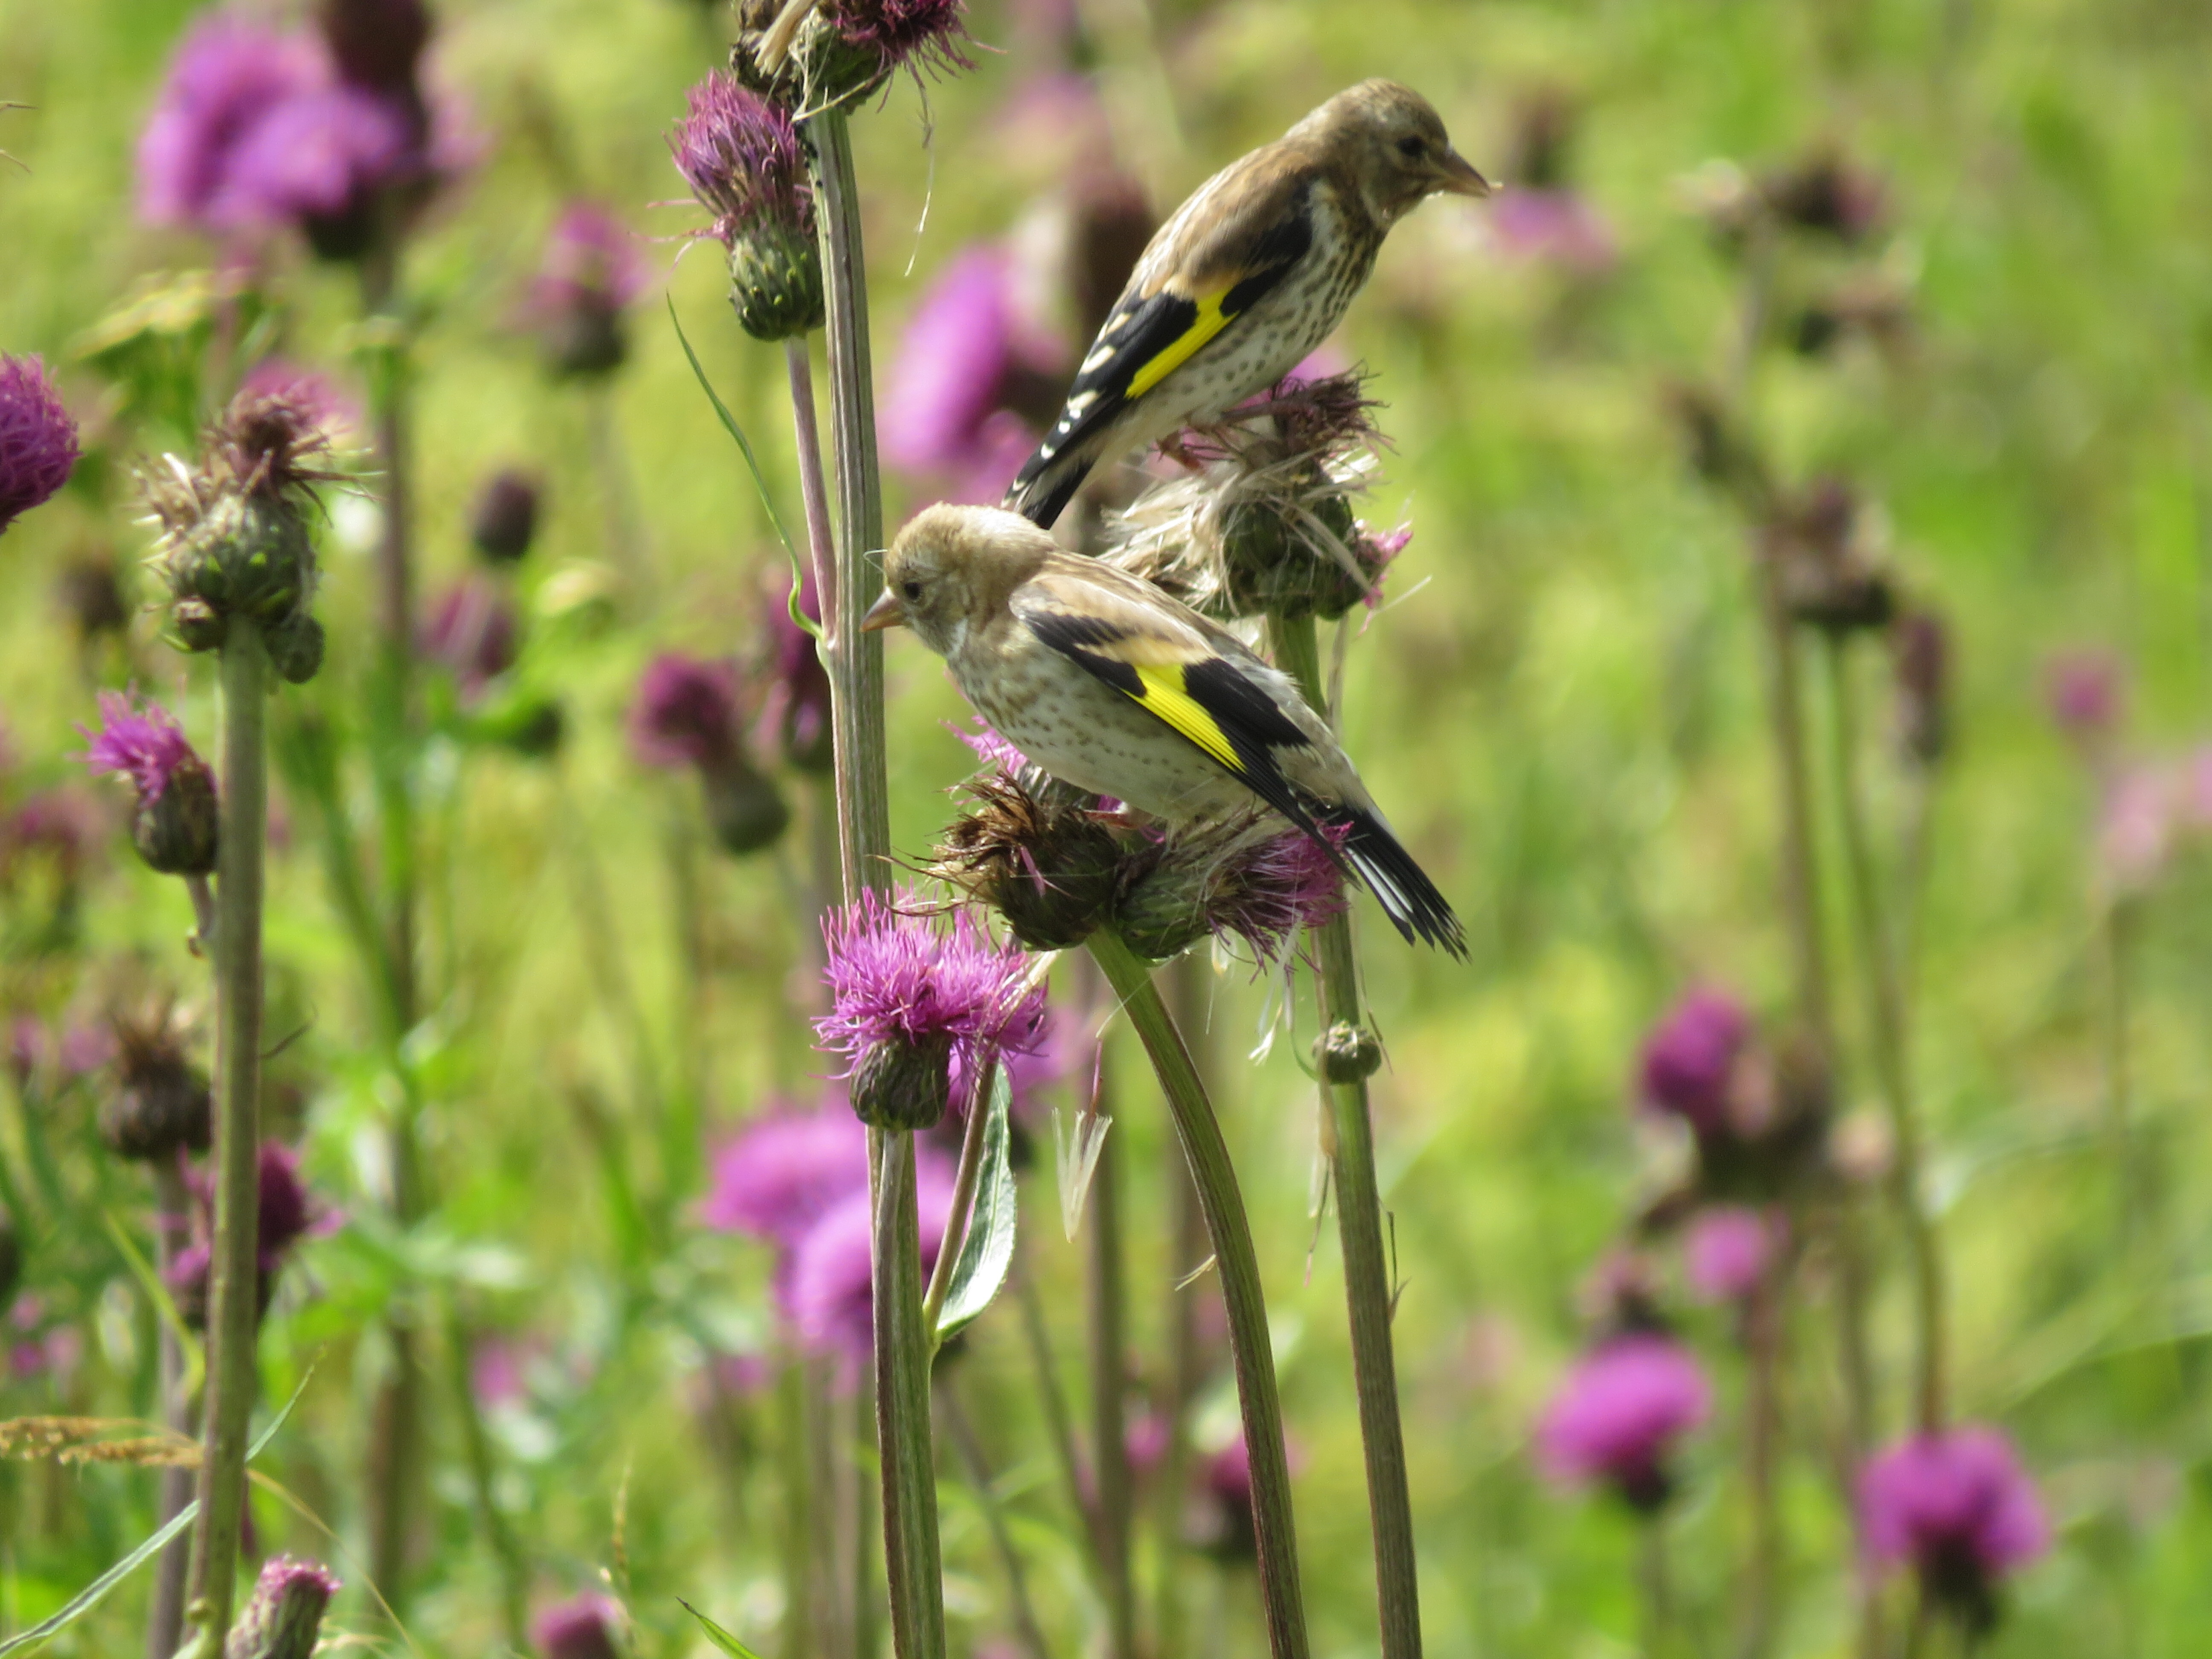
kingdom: Animalia
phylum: Chordata
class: Aves
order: Passeriformes
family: Fringillidae
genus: Carduelis
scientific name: Carduelis carduelis
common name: European goldfinch
